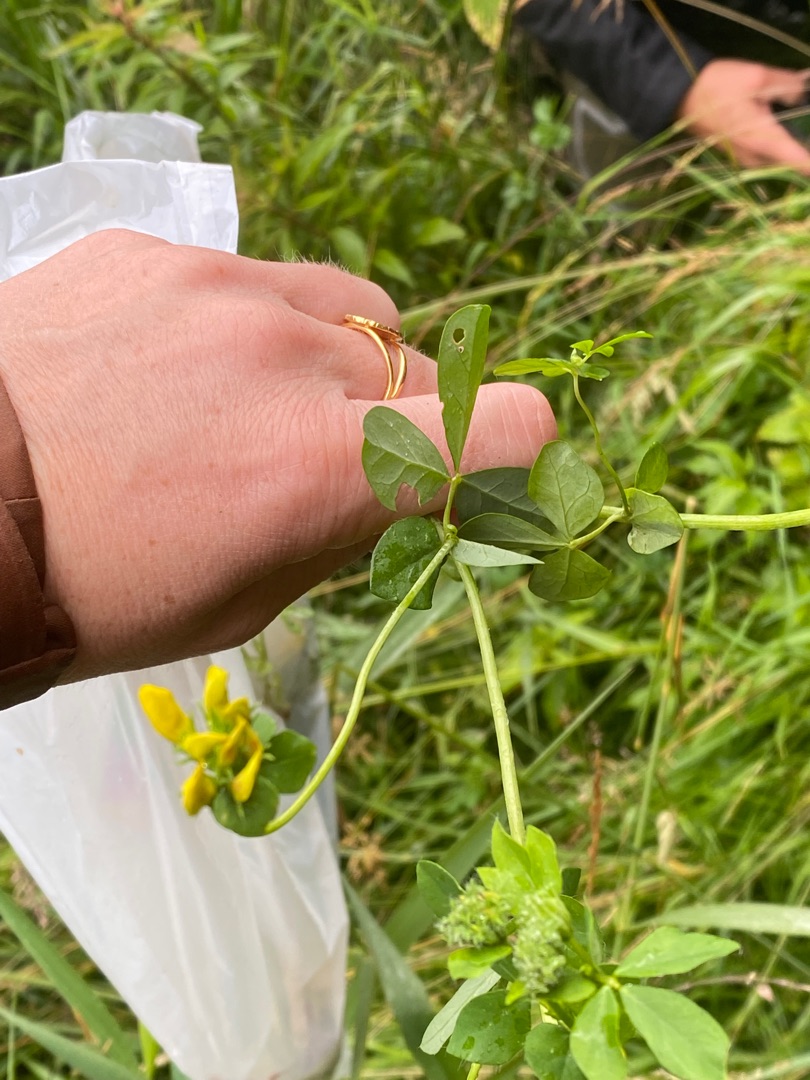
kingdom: Plantae
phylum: Tracheophyta
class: Magnoliopsida
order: Fabales
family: Fabaceae
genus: Lotus
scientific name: Lotus pedunculatus
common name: Sump-kællingetand
